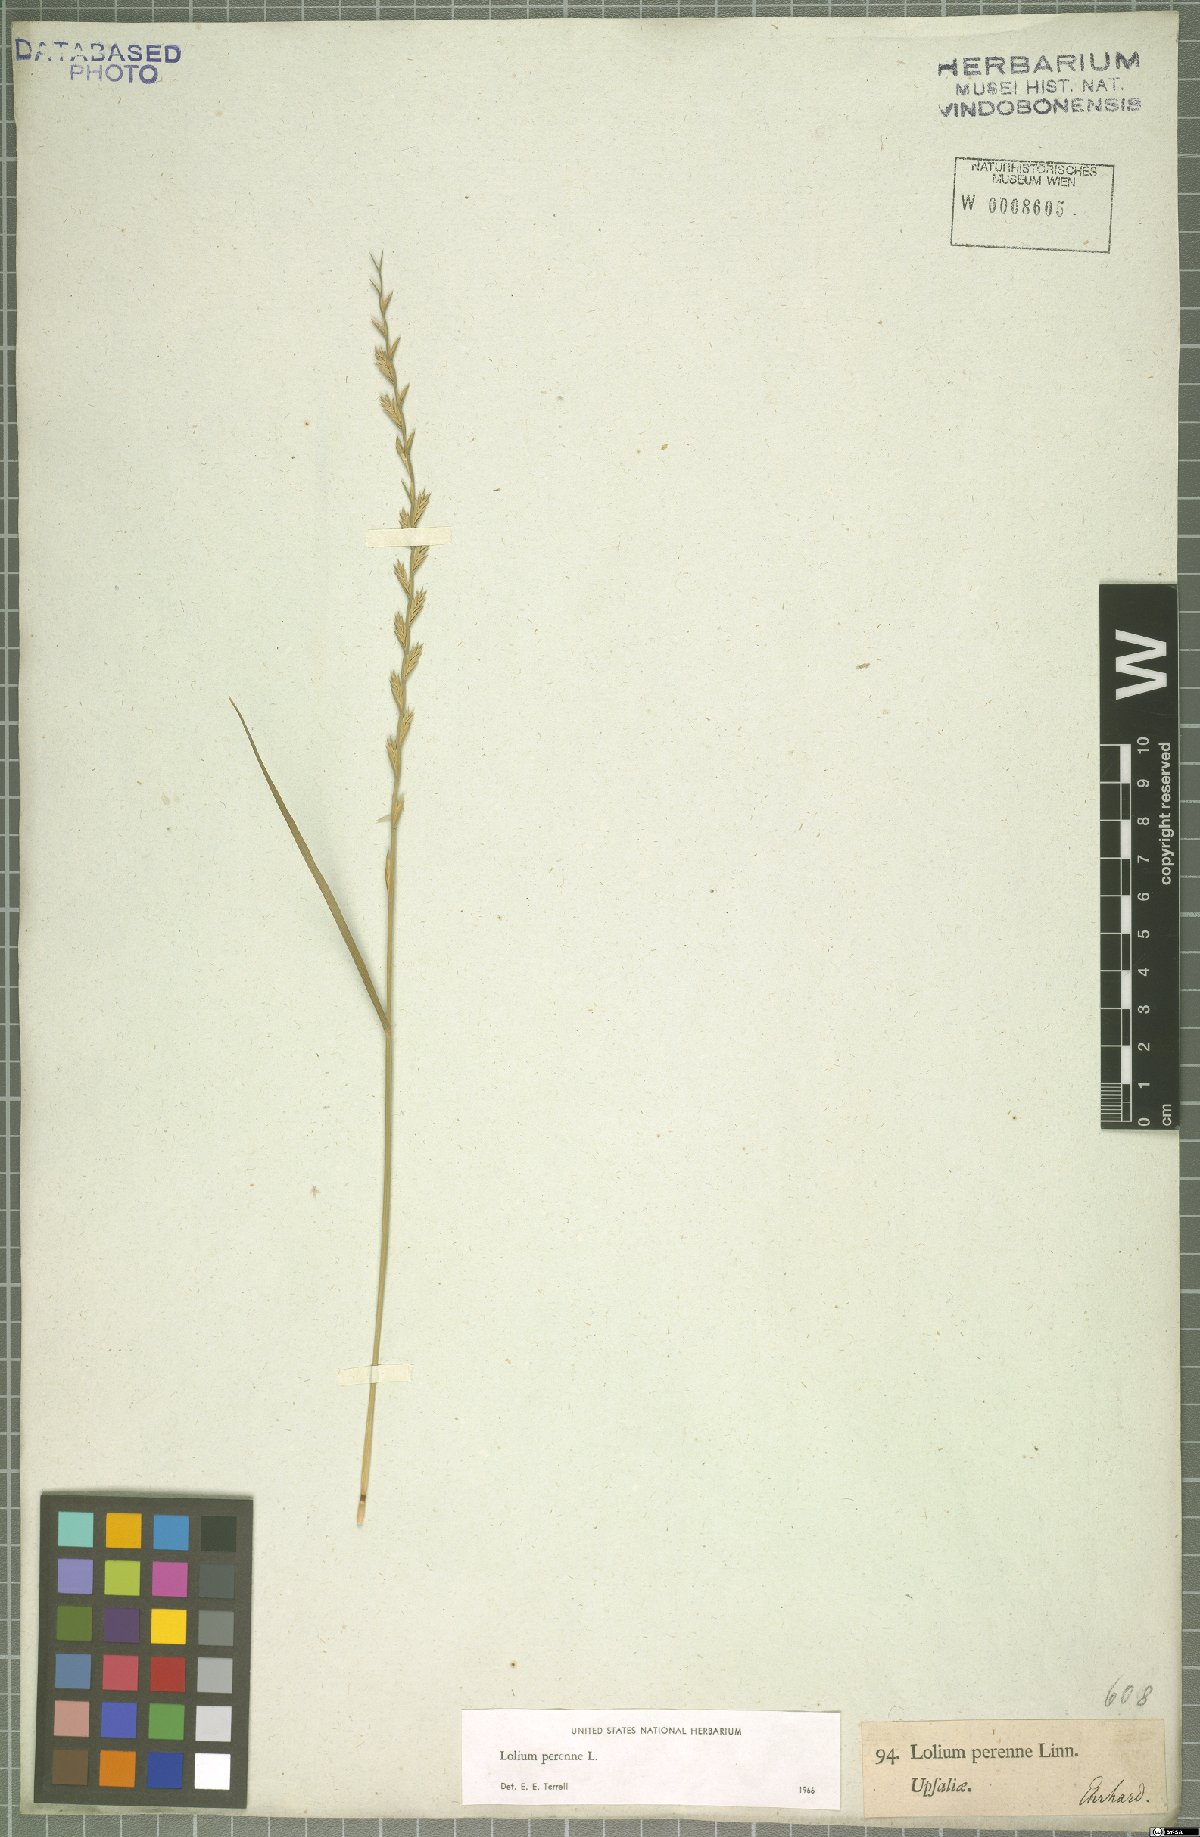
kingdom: Plantae
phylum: Tracheophyta
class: Liliopsida
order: Poales
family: Poaceae
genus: Lolium
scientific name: Lolium perenne
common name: Perennial ryegrass
